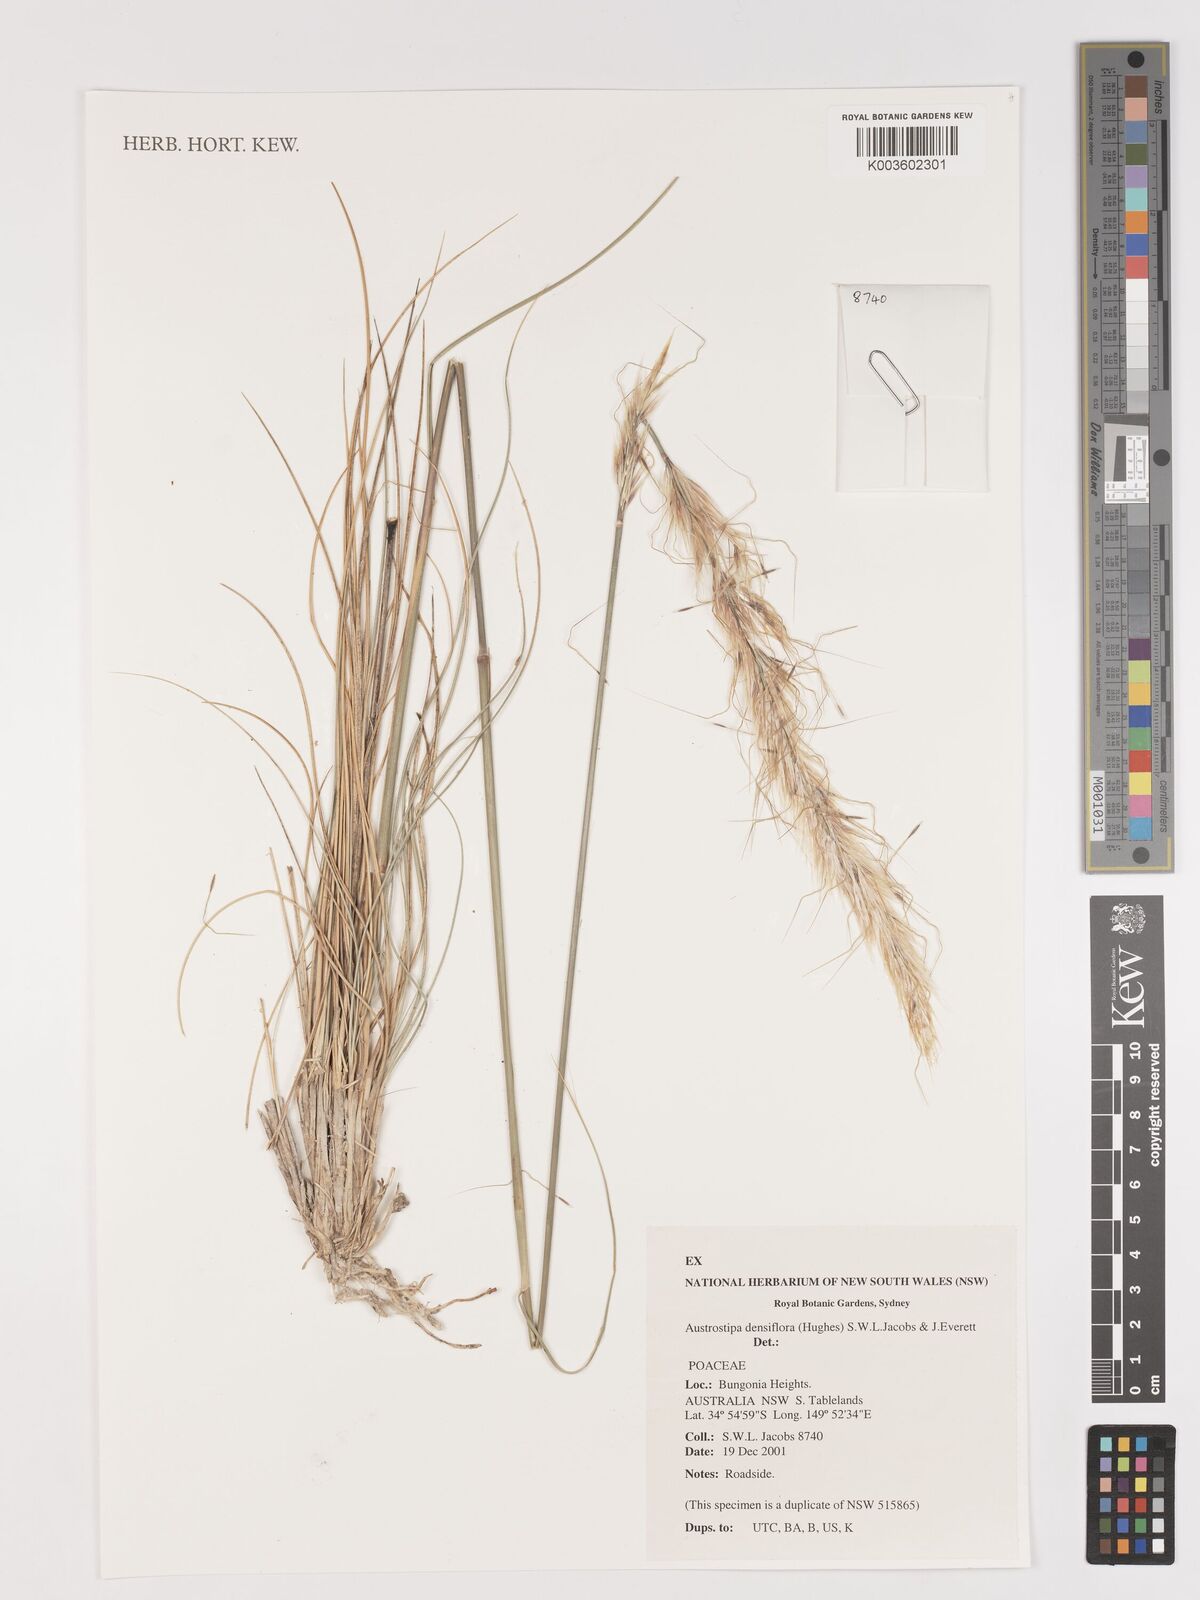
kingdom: Plantae
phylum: Tracheophyta
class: Liliopsida
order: Poales
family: Poaceae
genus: Stipa
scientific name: Stipa
